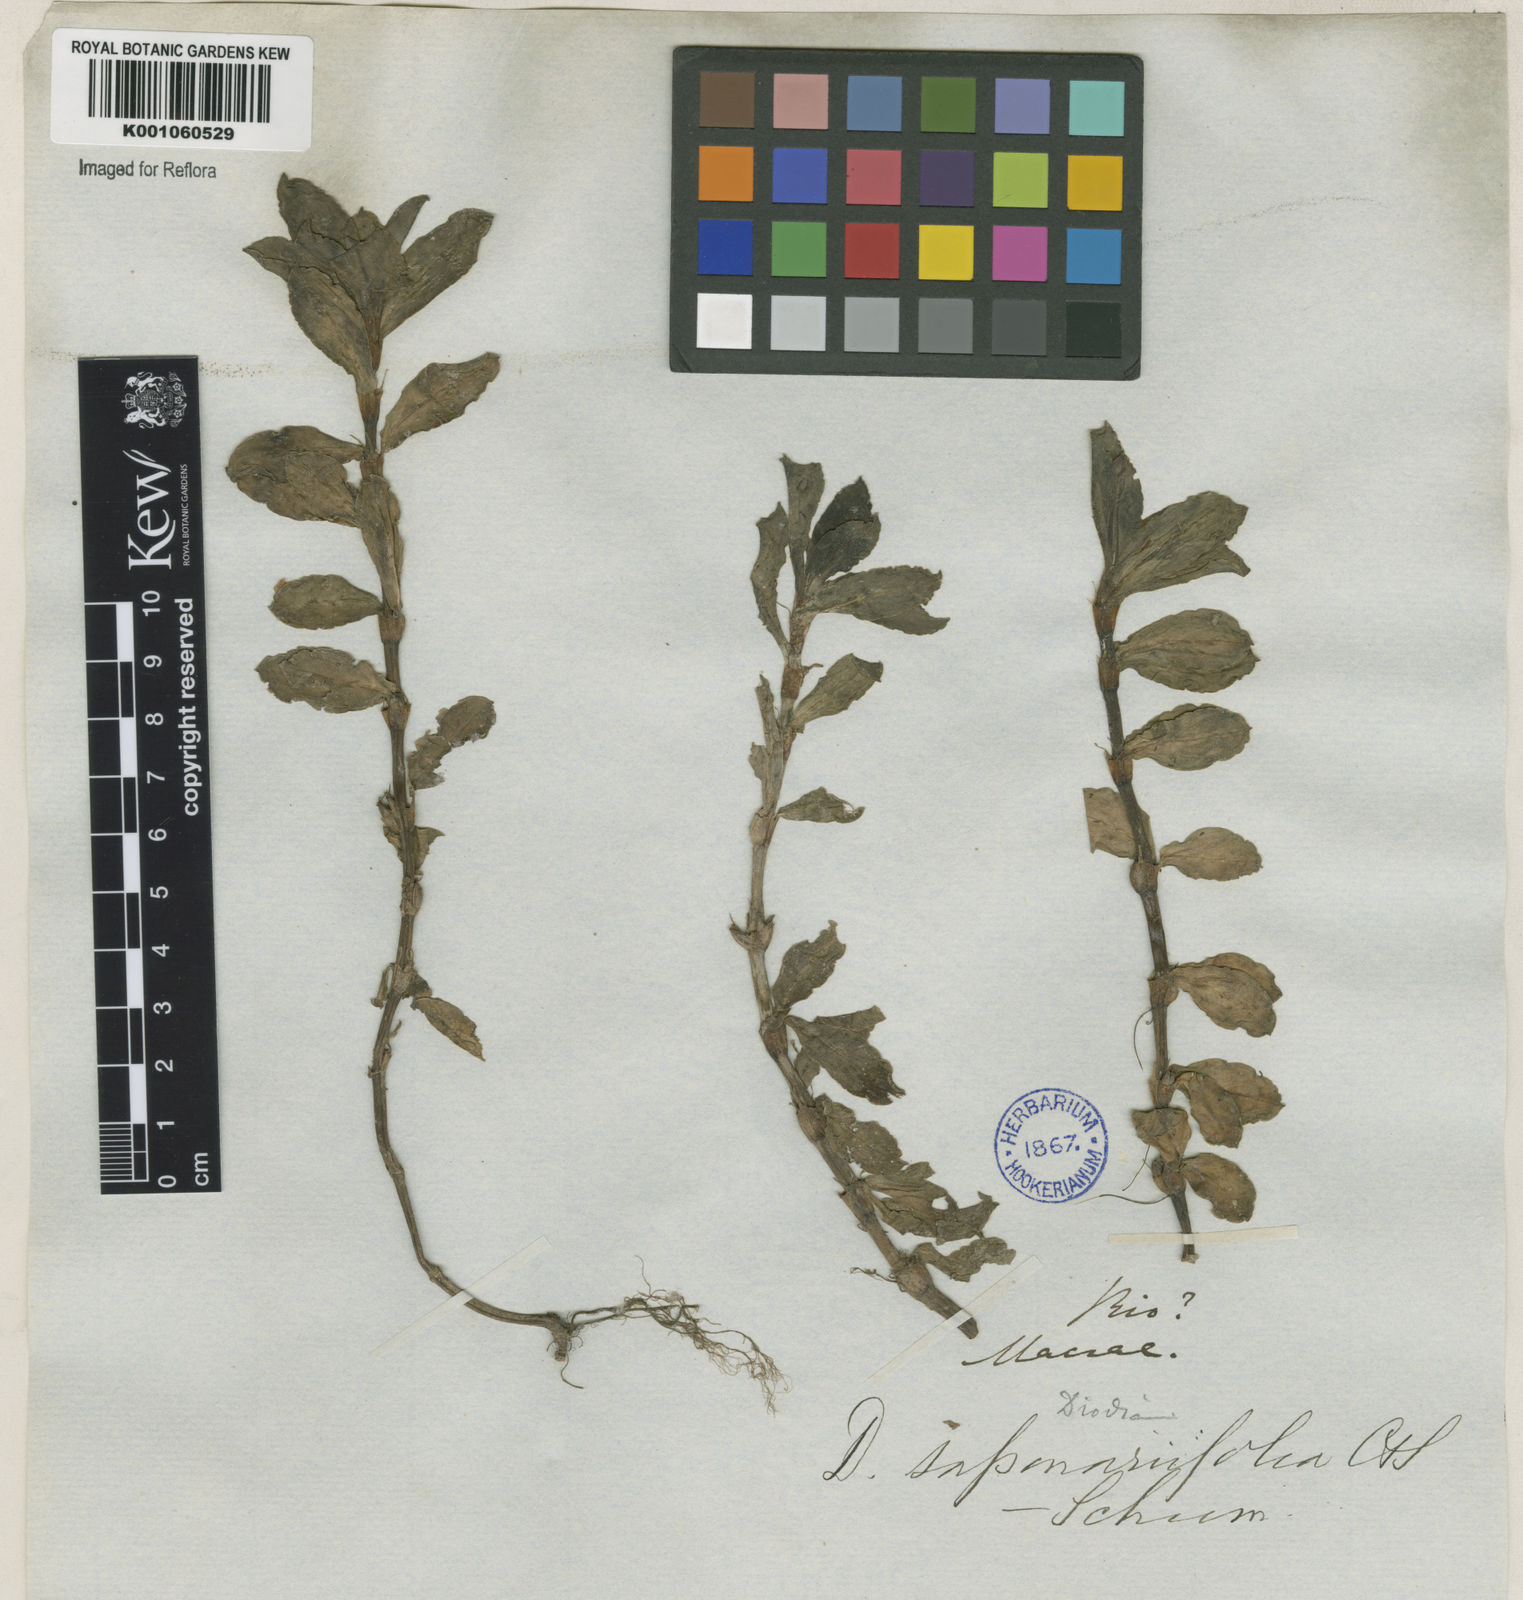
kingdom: Plantae
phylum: Tracheophyta
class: Magnoliopsida
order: Gentianales
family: Rubiaceae
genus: Diodia
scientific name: Diodia saponariifolia
